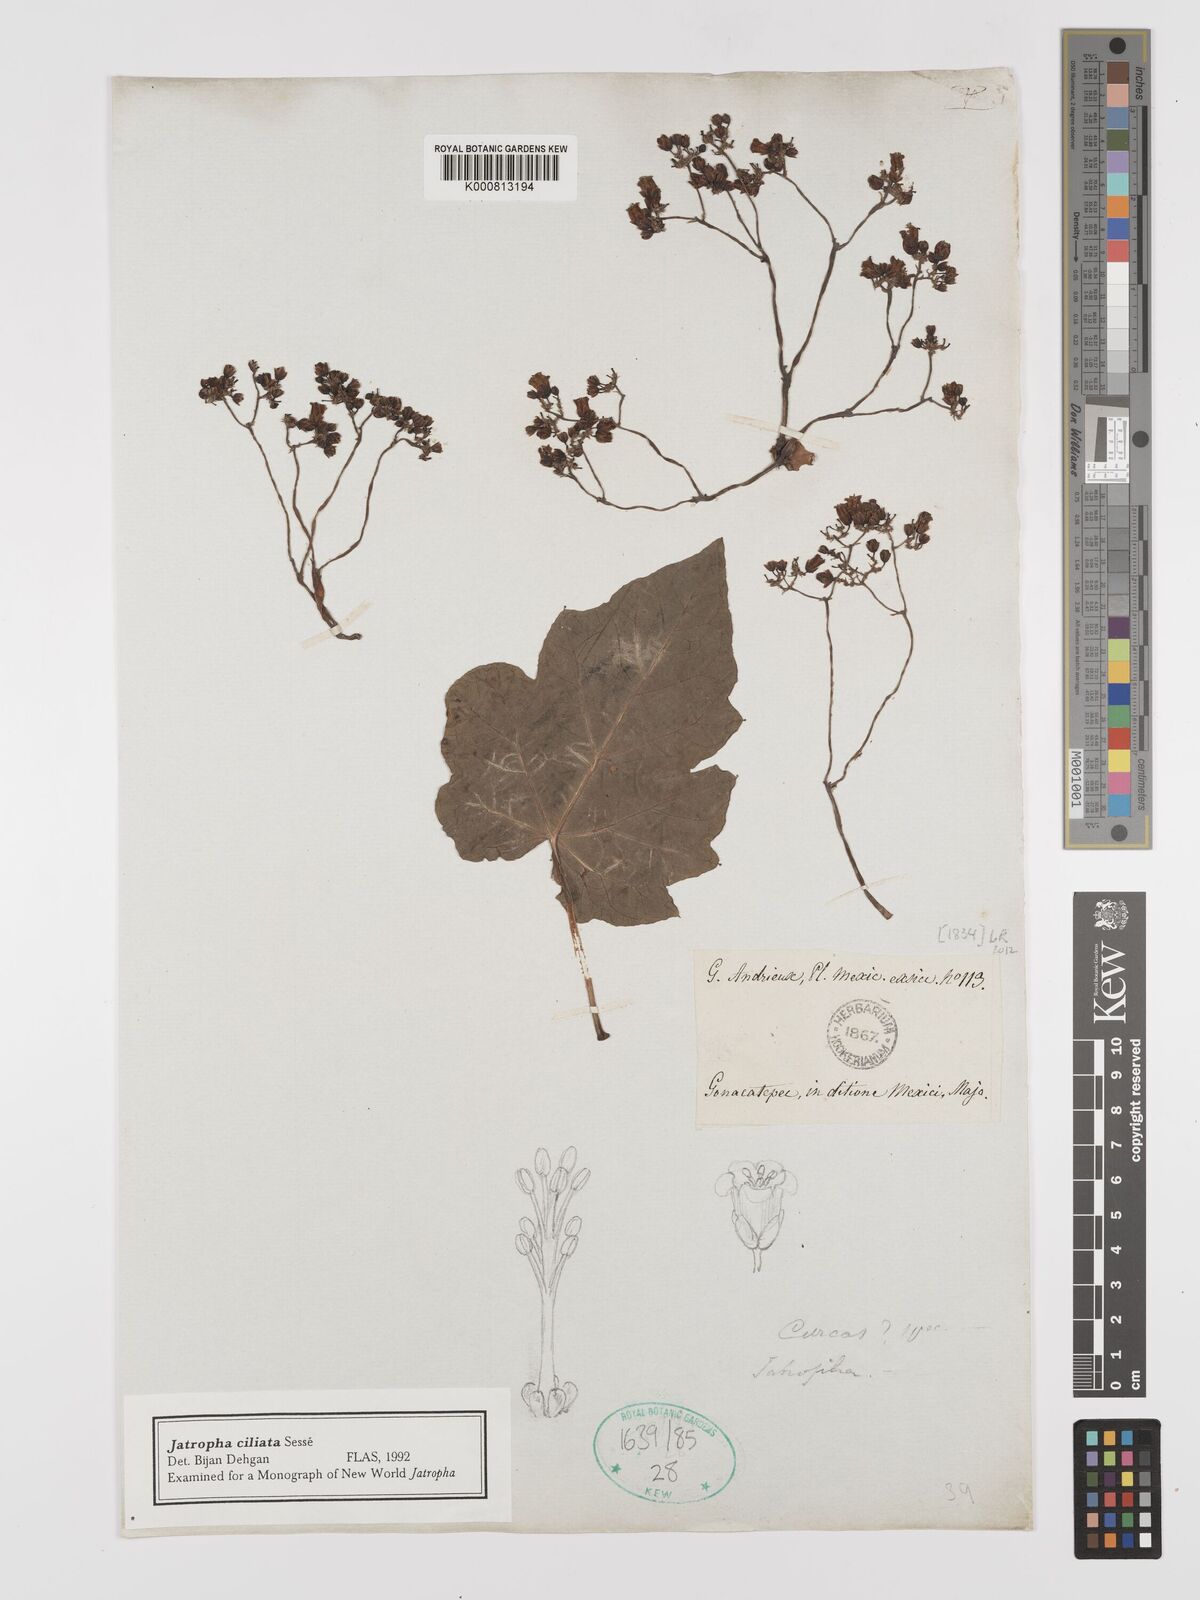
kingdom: Plantae
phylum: Tracheophyta
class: Magnoliopsida
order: Malpighiales
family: Euphorbiaceae
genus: Jatropha
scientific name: Jatropha
